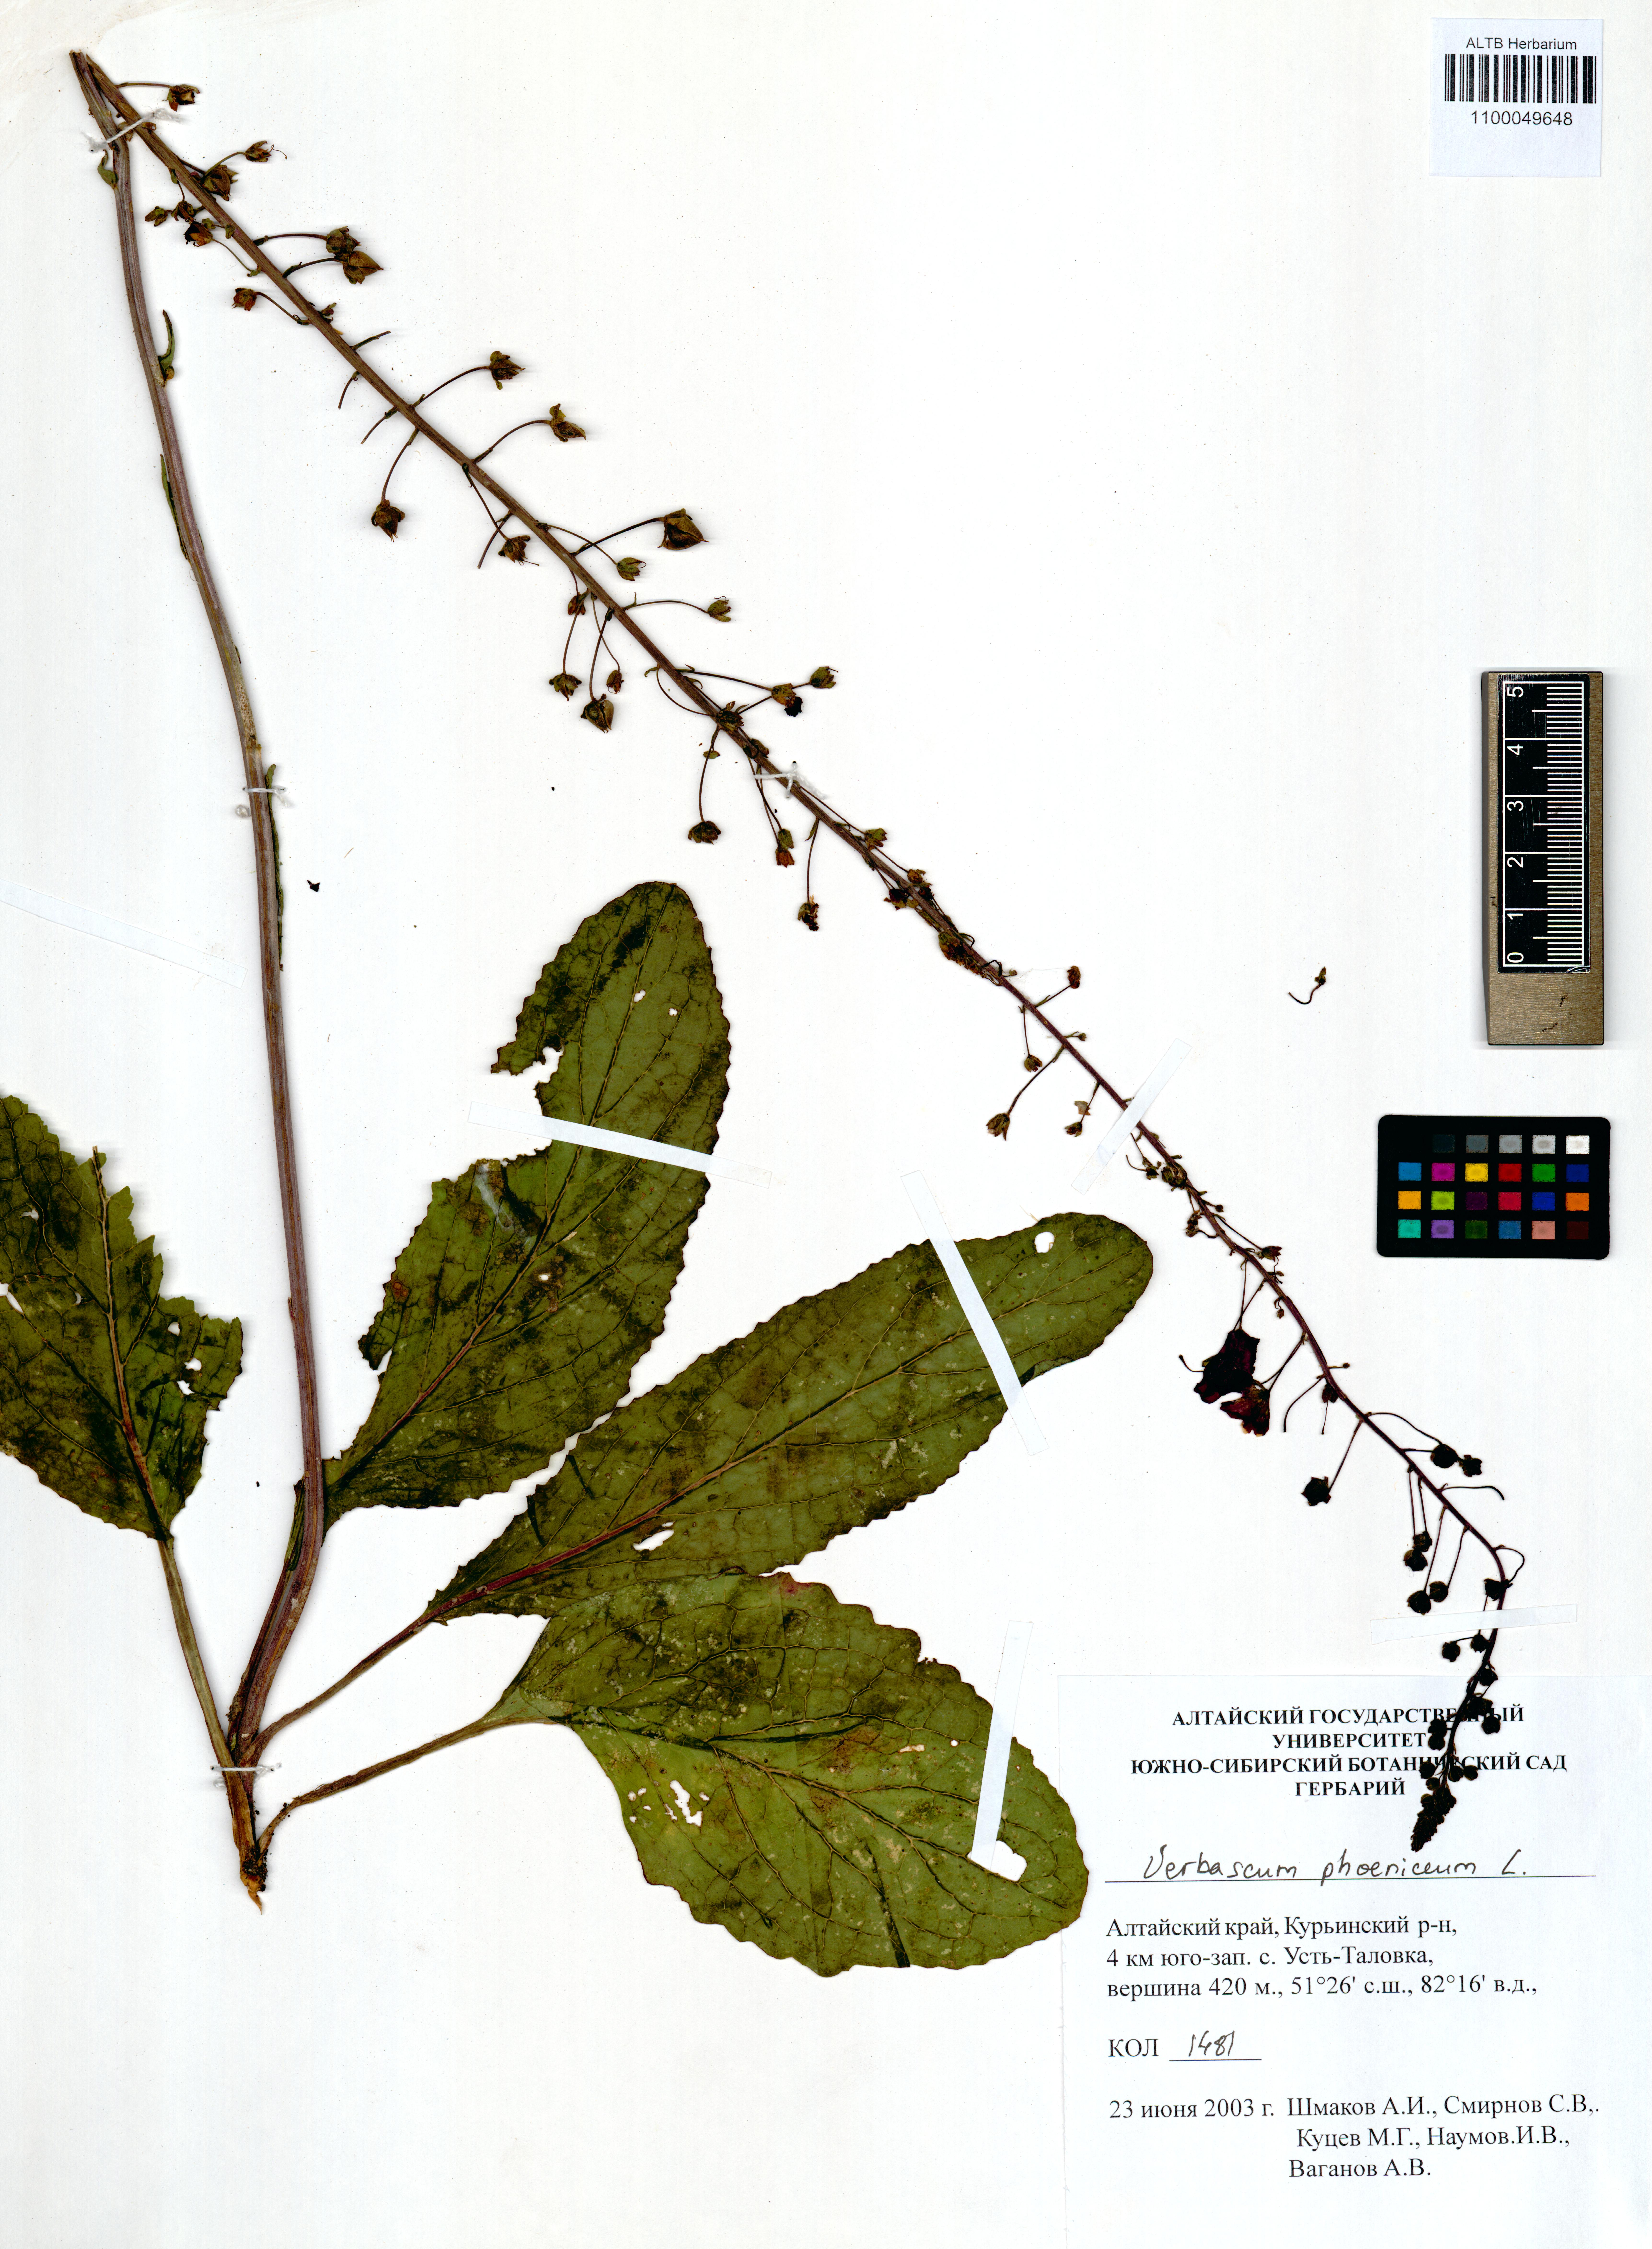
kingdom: Plantae
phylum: Tracheophyta
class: Magnoliopsida
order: Fabales
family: Fabaceae
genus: Vicia
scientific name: Vicia lilacina
